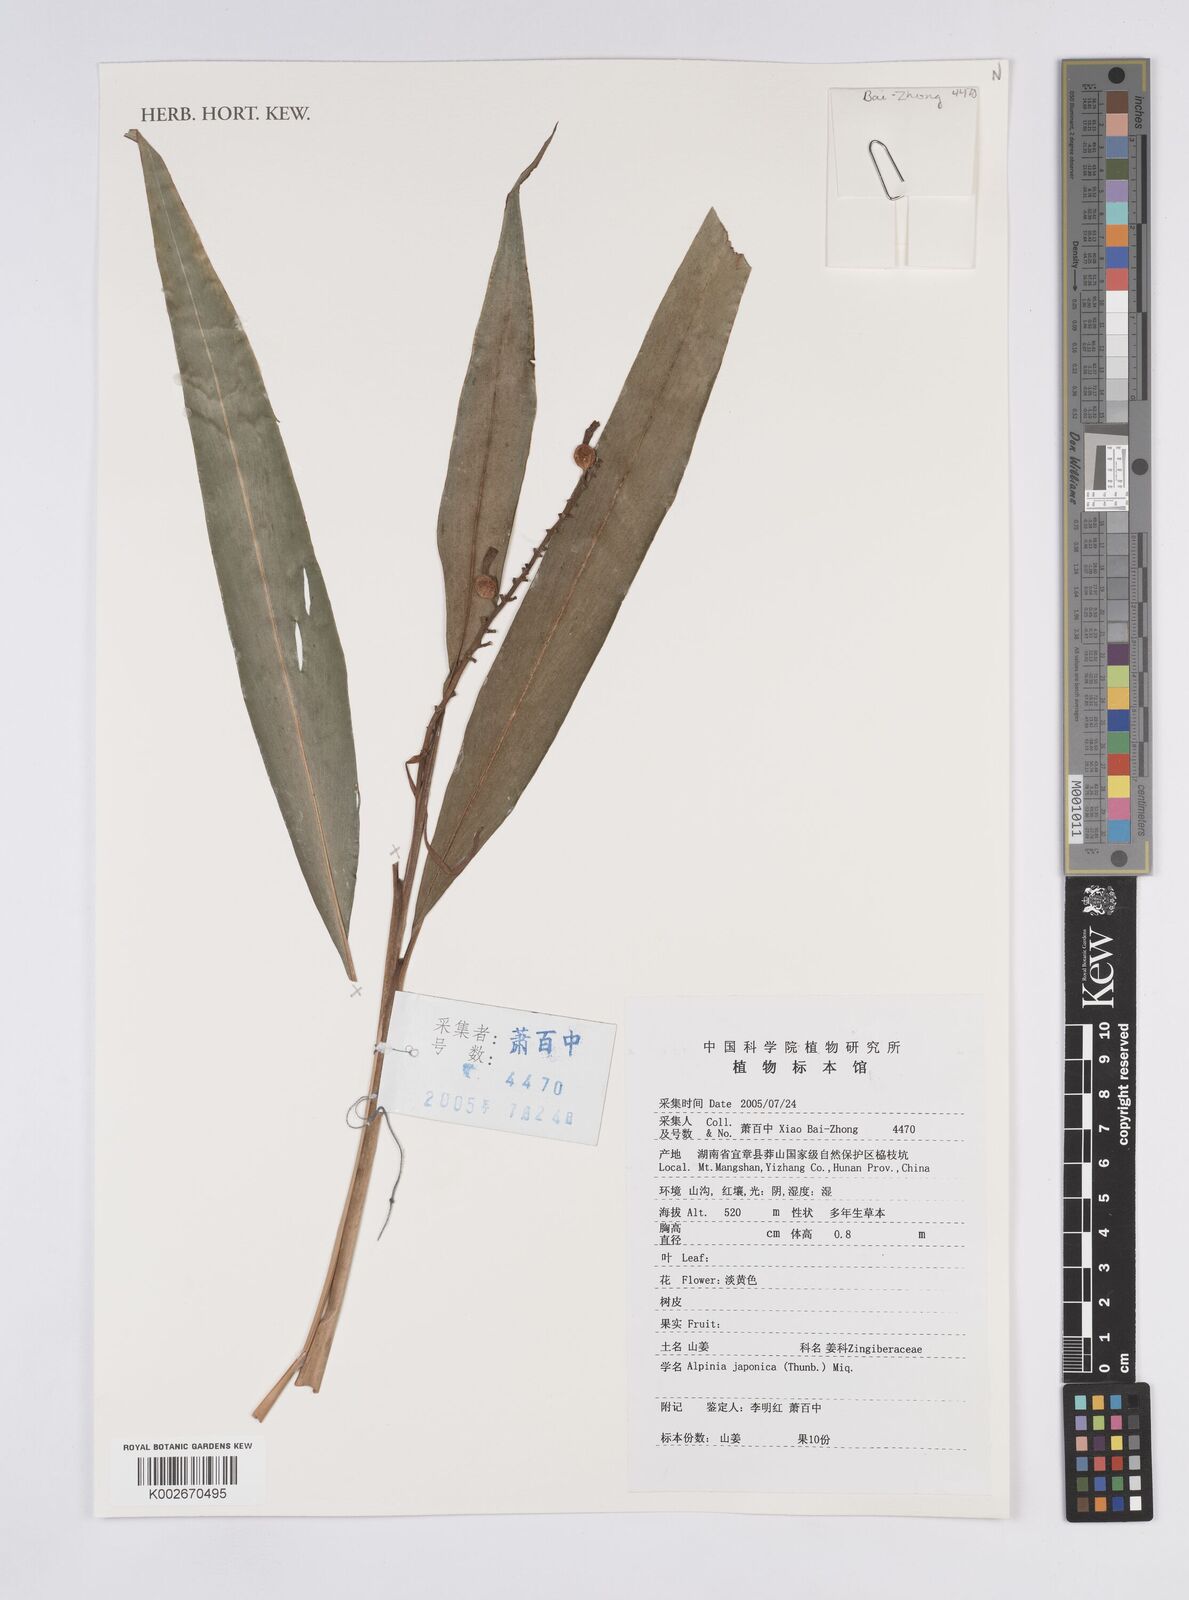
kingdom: Plantae
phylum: Tracheophyta
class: Liliopsida
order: Zingiberales
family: Zingiberaceae
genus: Alpinia
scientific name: Alpinia japonica
